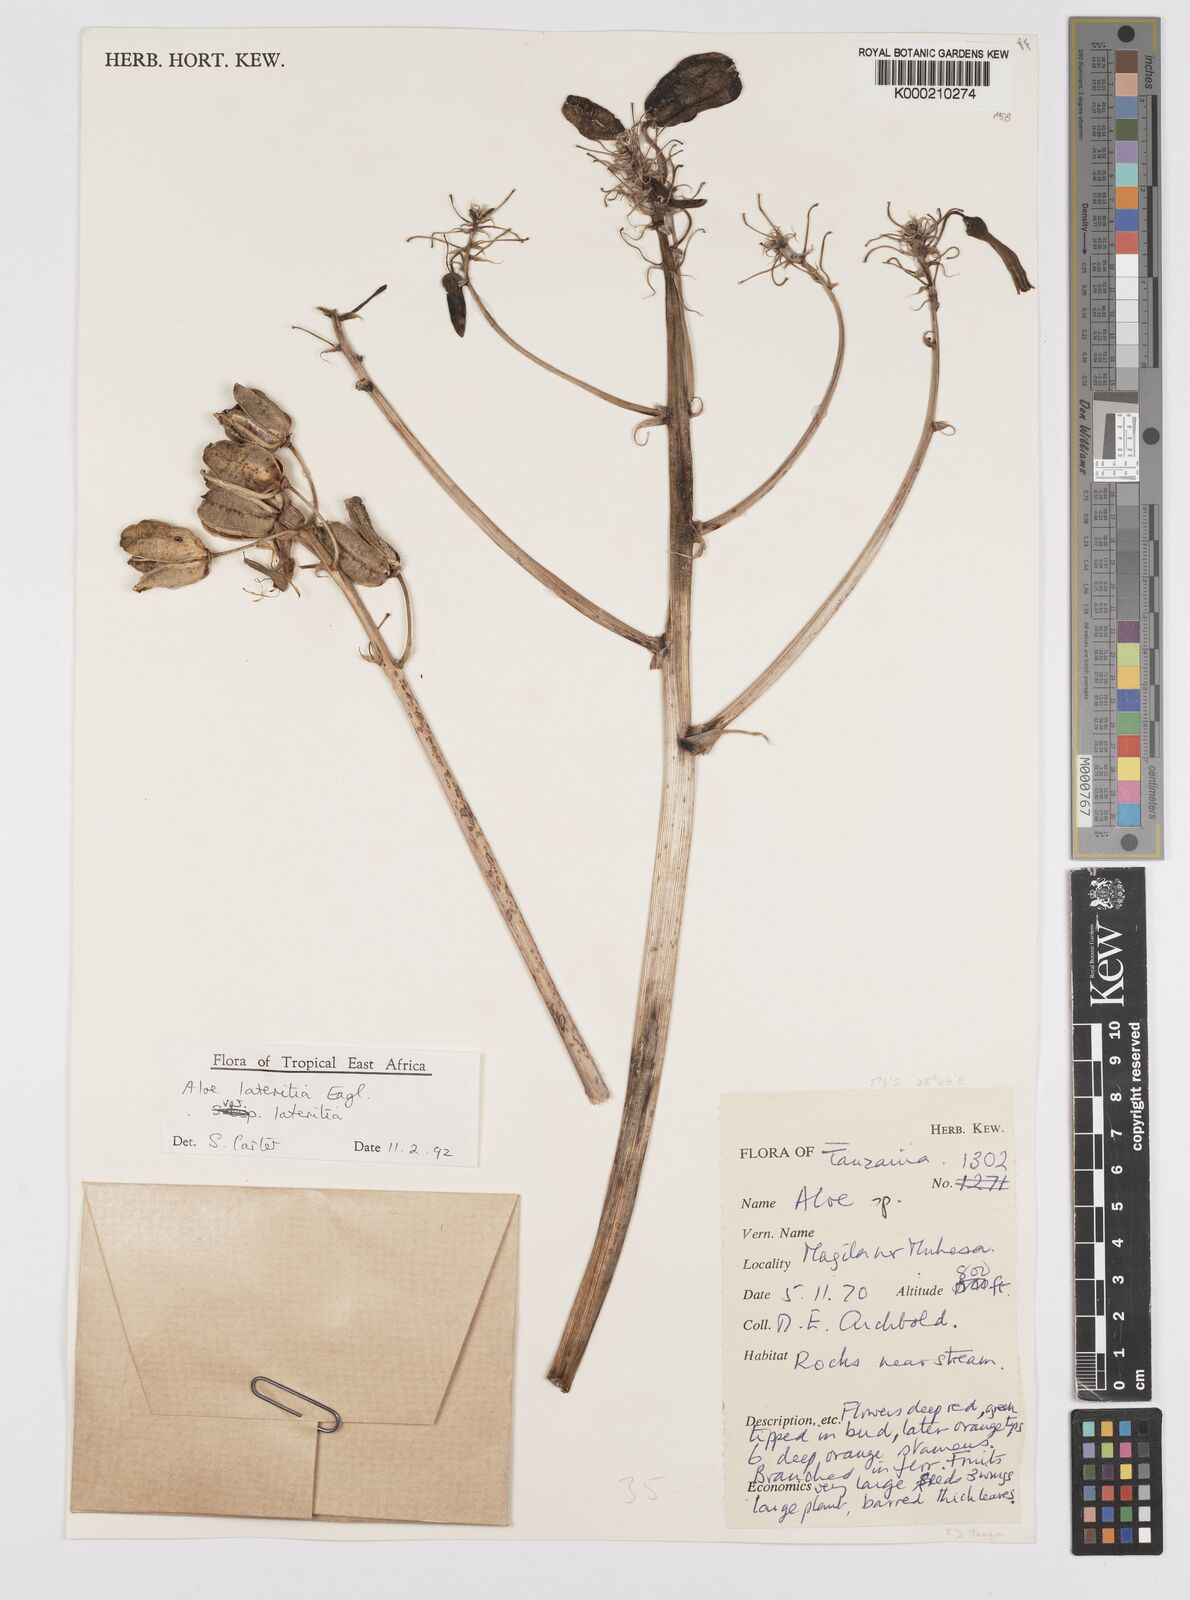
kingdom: Plantae
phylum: Tracheophyta
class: Liliopsida
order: Asparagales
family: Asphodelaceae
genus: Aloe
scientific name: Aloe lateritia
